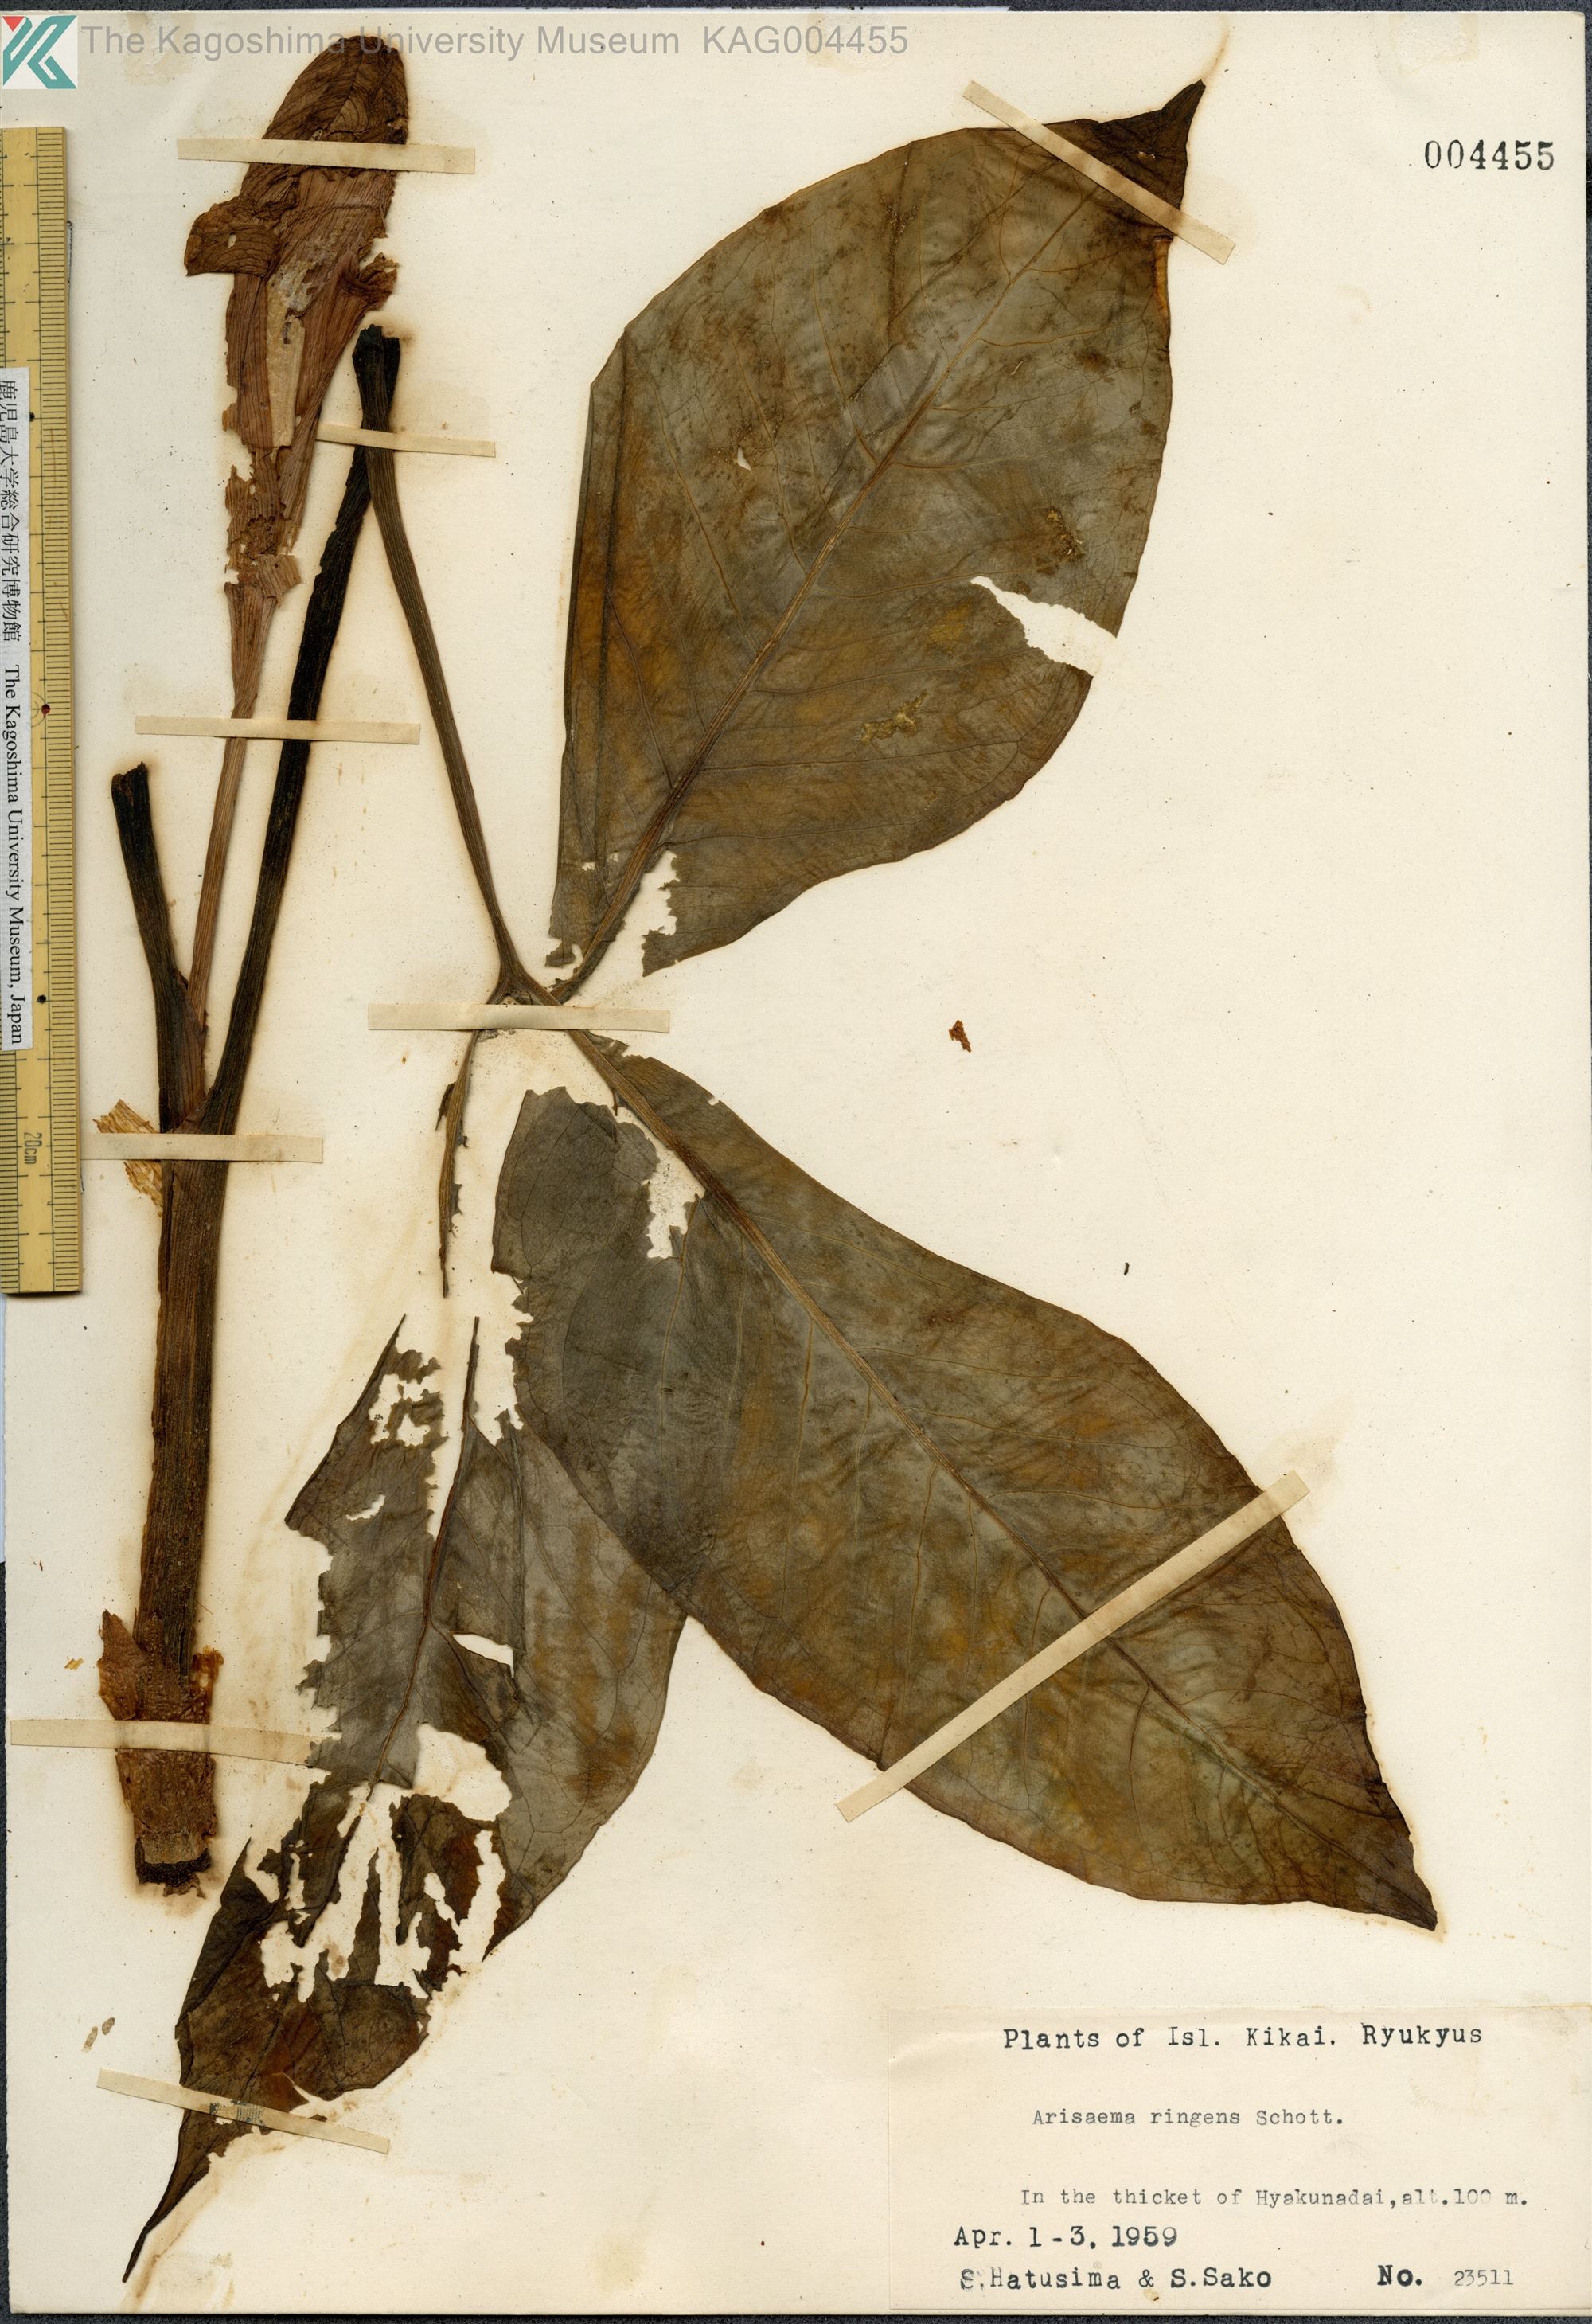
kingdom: Plantae
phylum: Tracheophyta
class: Liliopsida
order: Alismatales
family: Araceae
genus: Arisaema
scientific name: Arisaema ringens
